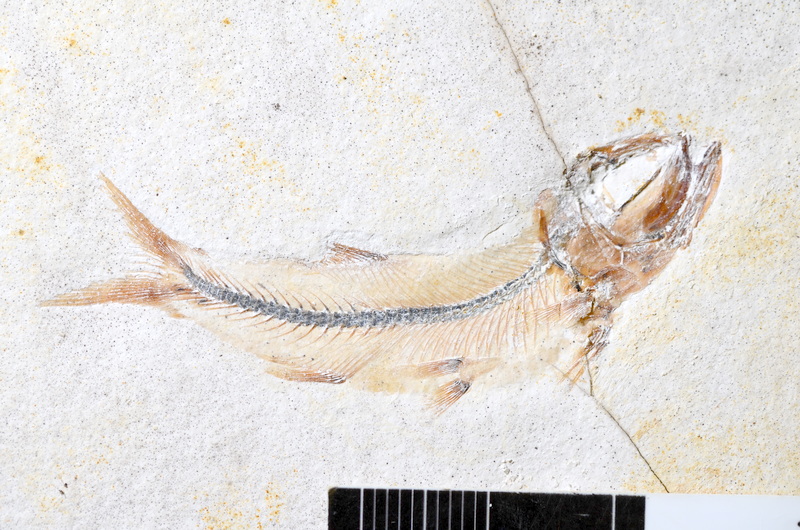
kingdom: Animalia
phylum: Chordata
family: Ascalaboidae
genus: Ebertichthys
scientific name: Ebertichthys ettlingensis
